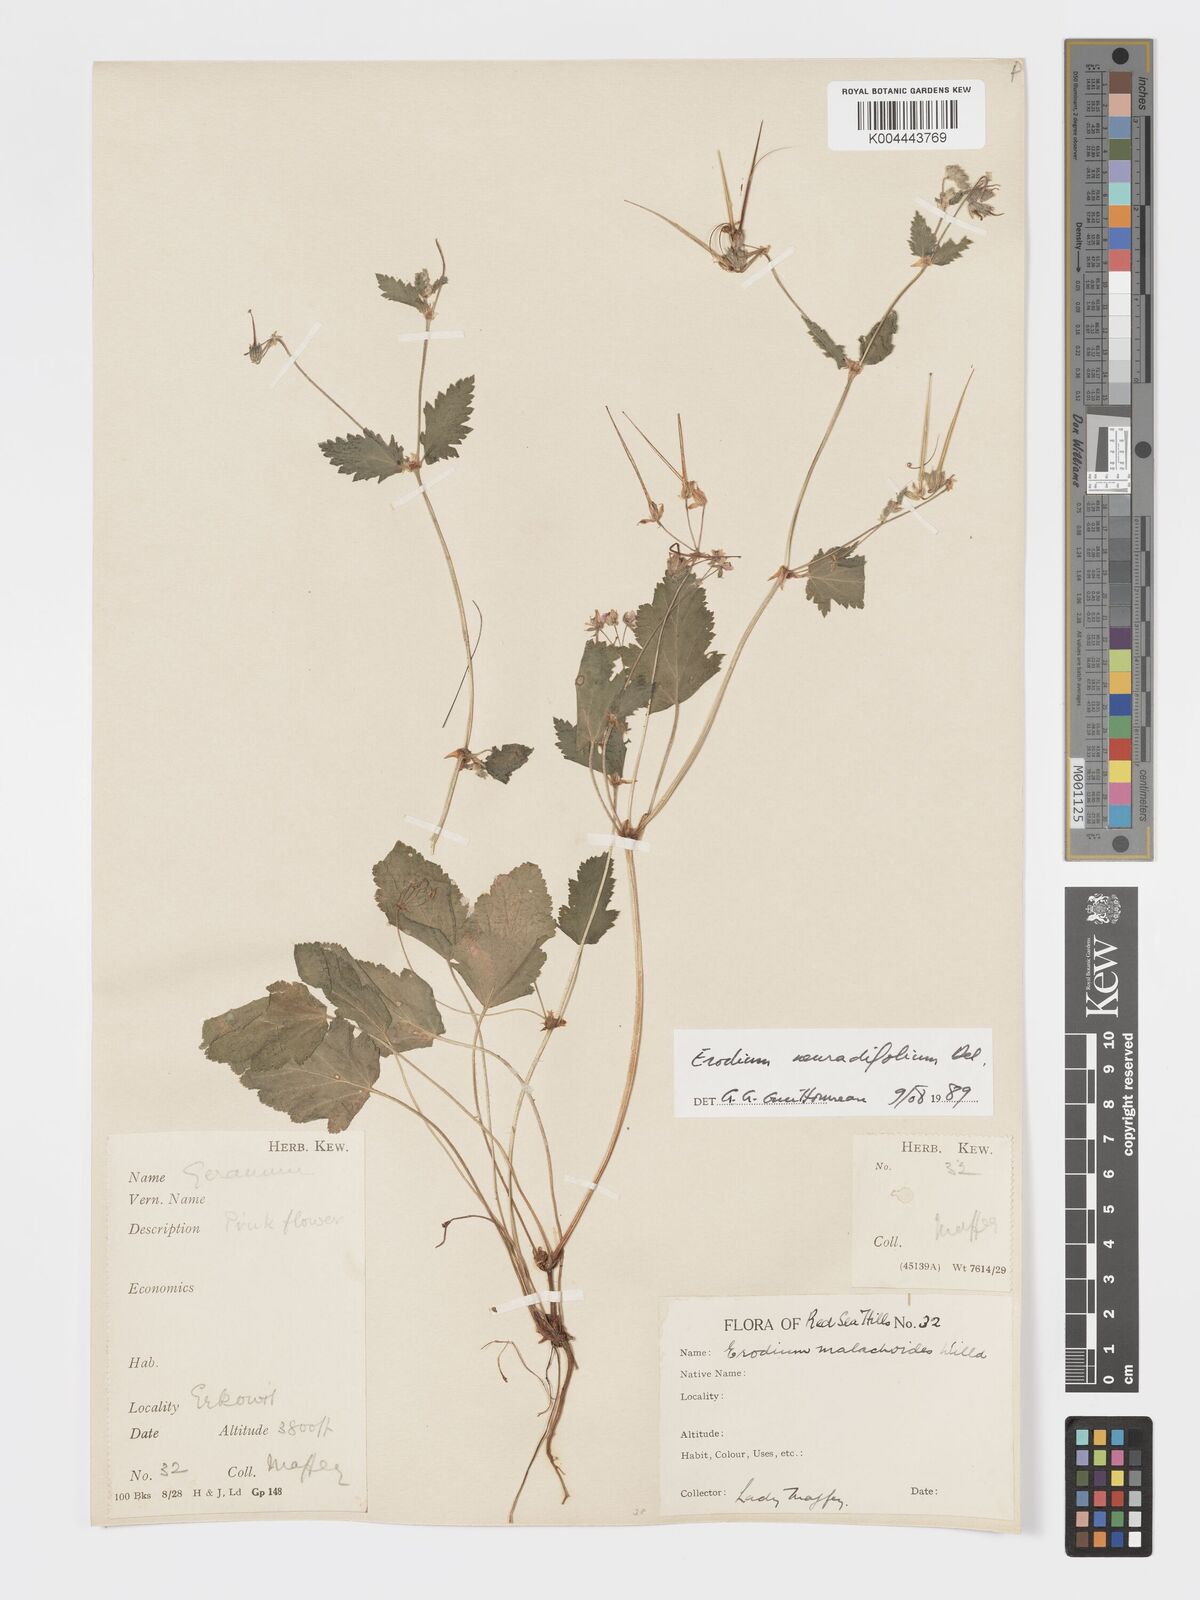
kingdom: Plantae
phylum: Tracheophyta
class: Magnoliopsida
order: Geraniales
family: Geraniaceae
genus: Erodium
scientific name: Erodium neuradifolium
